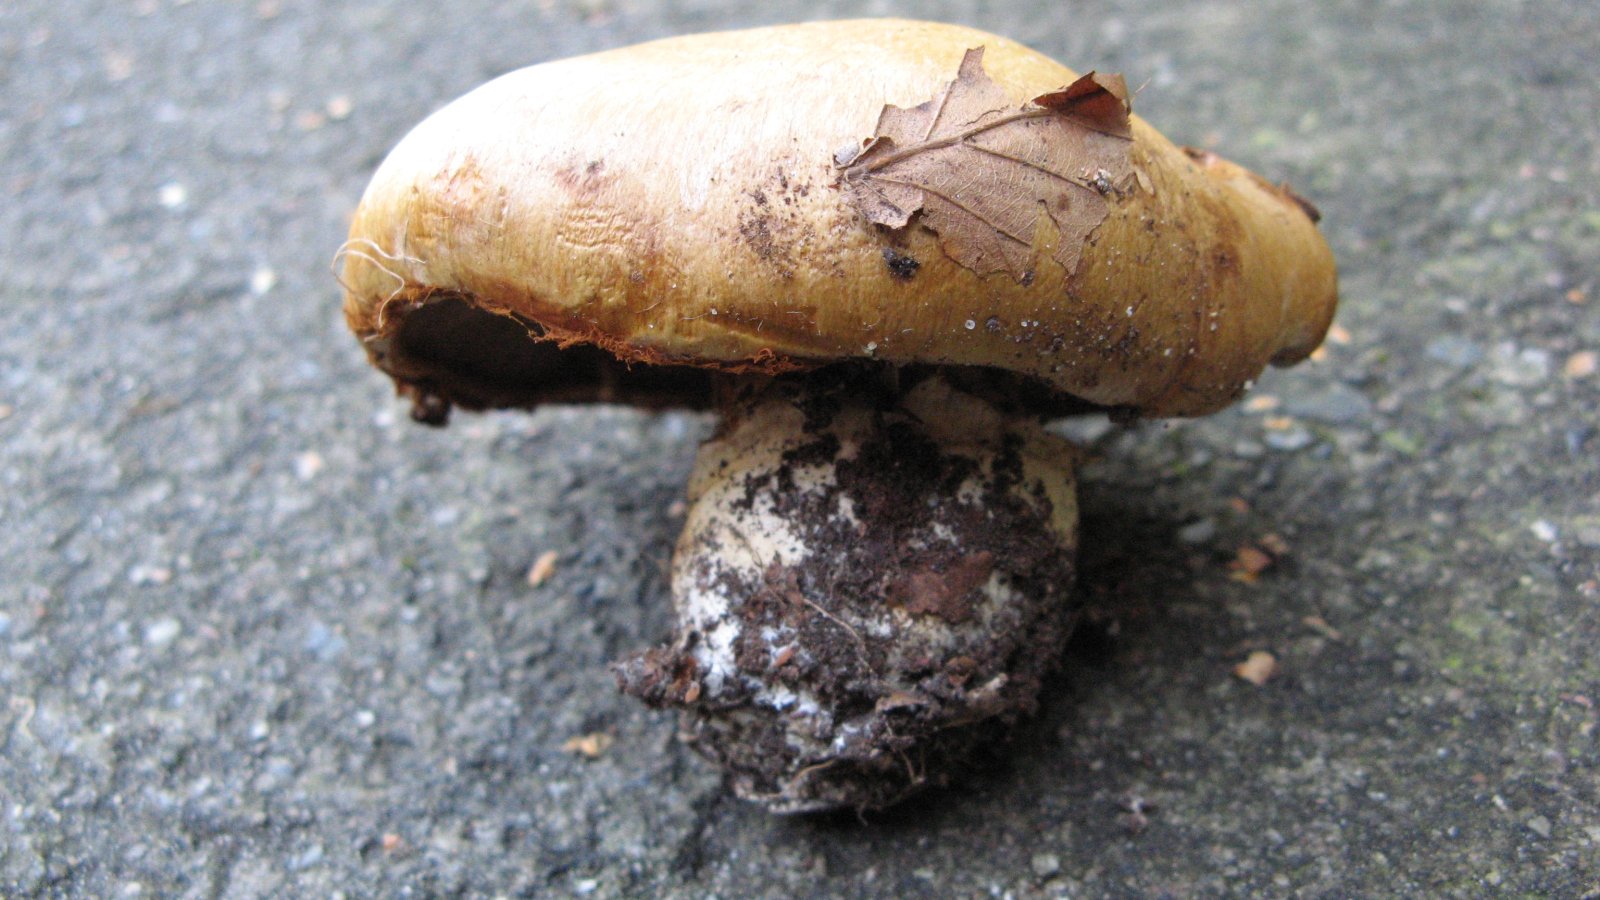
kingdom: Fungi
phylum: Basidiomycota
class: Agaricomycetes
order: Agaricales
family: Cortinariaceae
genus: Cortinarius
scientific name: Cortinarius anserinus
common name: bøge-slørhat
